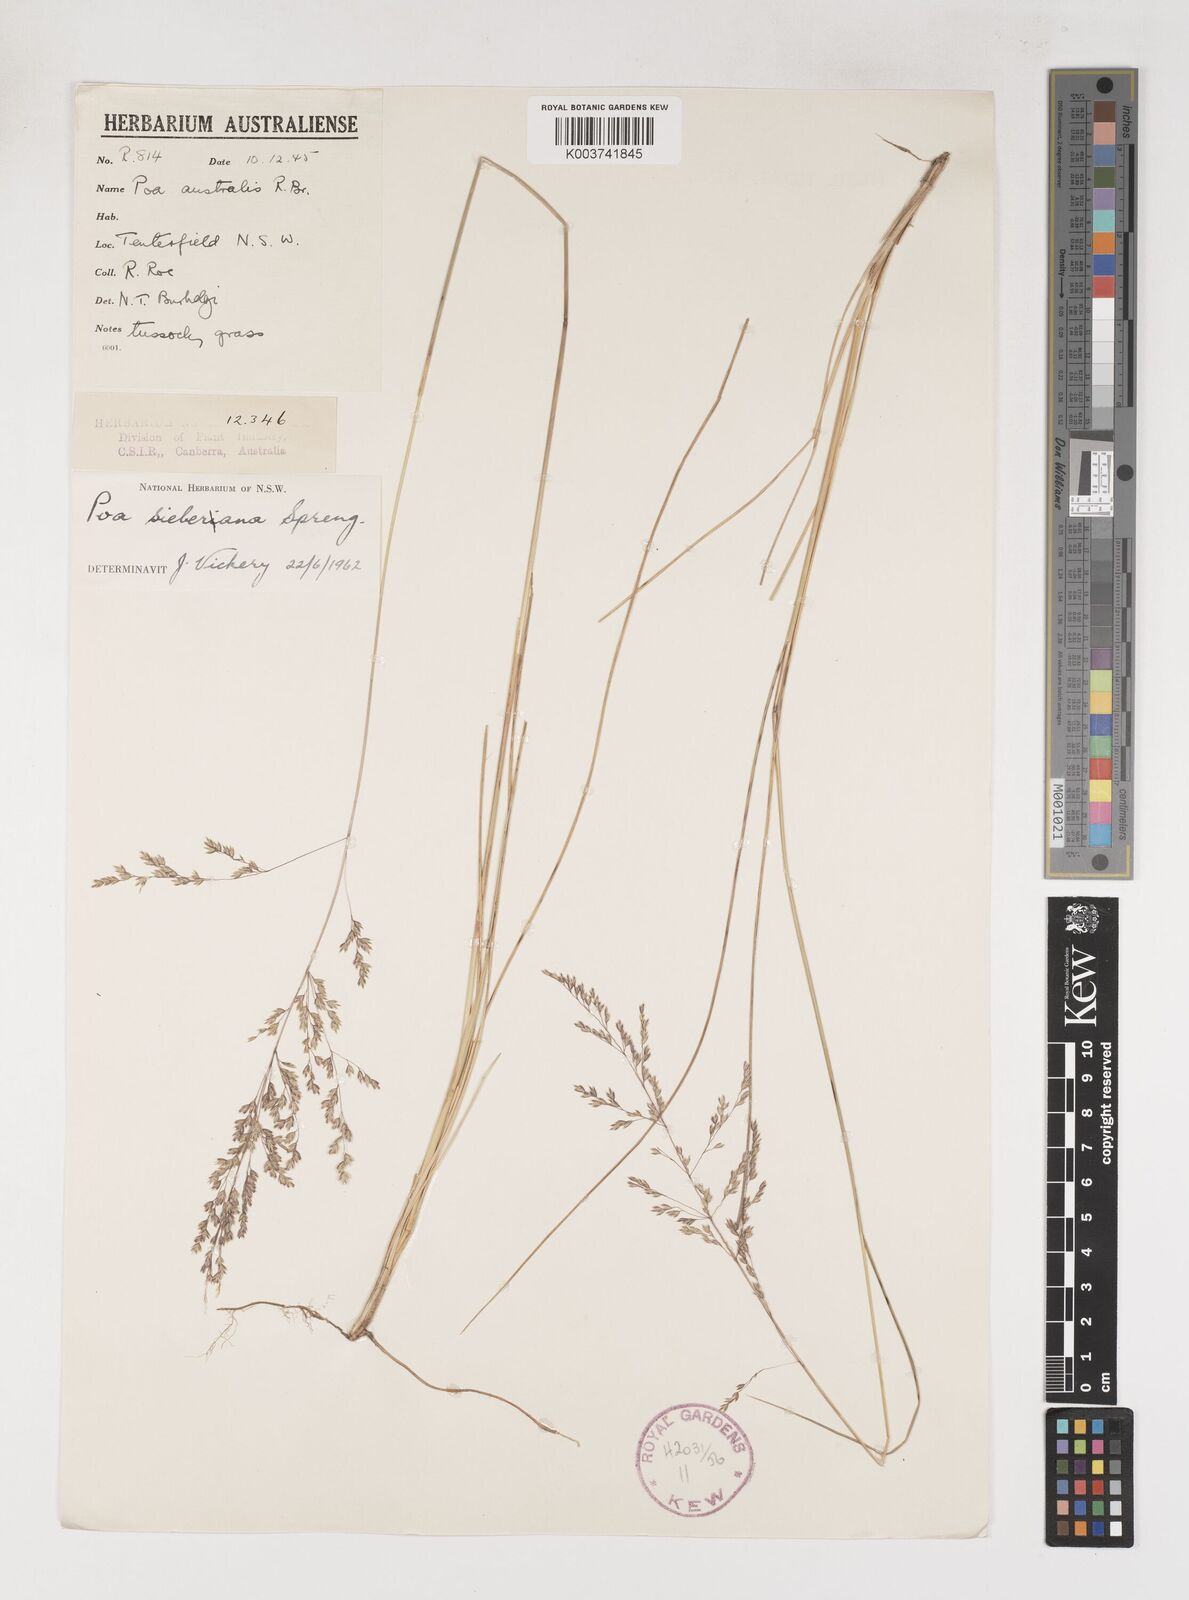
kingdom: Plantae
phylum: Tracheophyta
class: Liliopsida
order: Poales
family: Poaceae
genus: Poa
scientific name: Poa sieberiana
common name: Tussock poa
